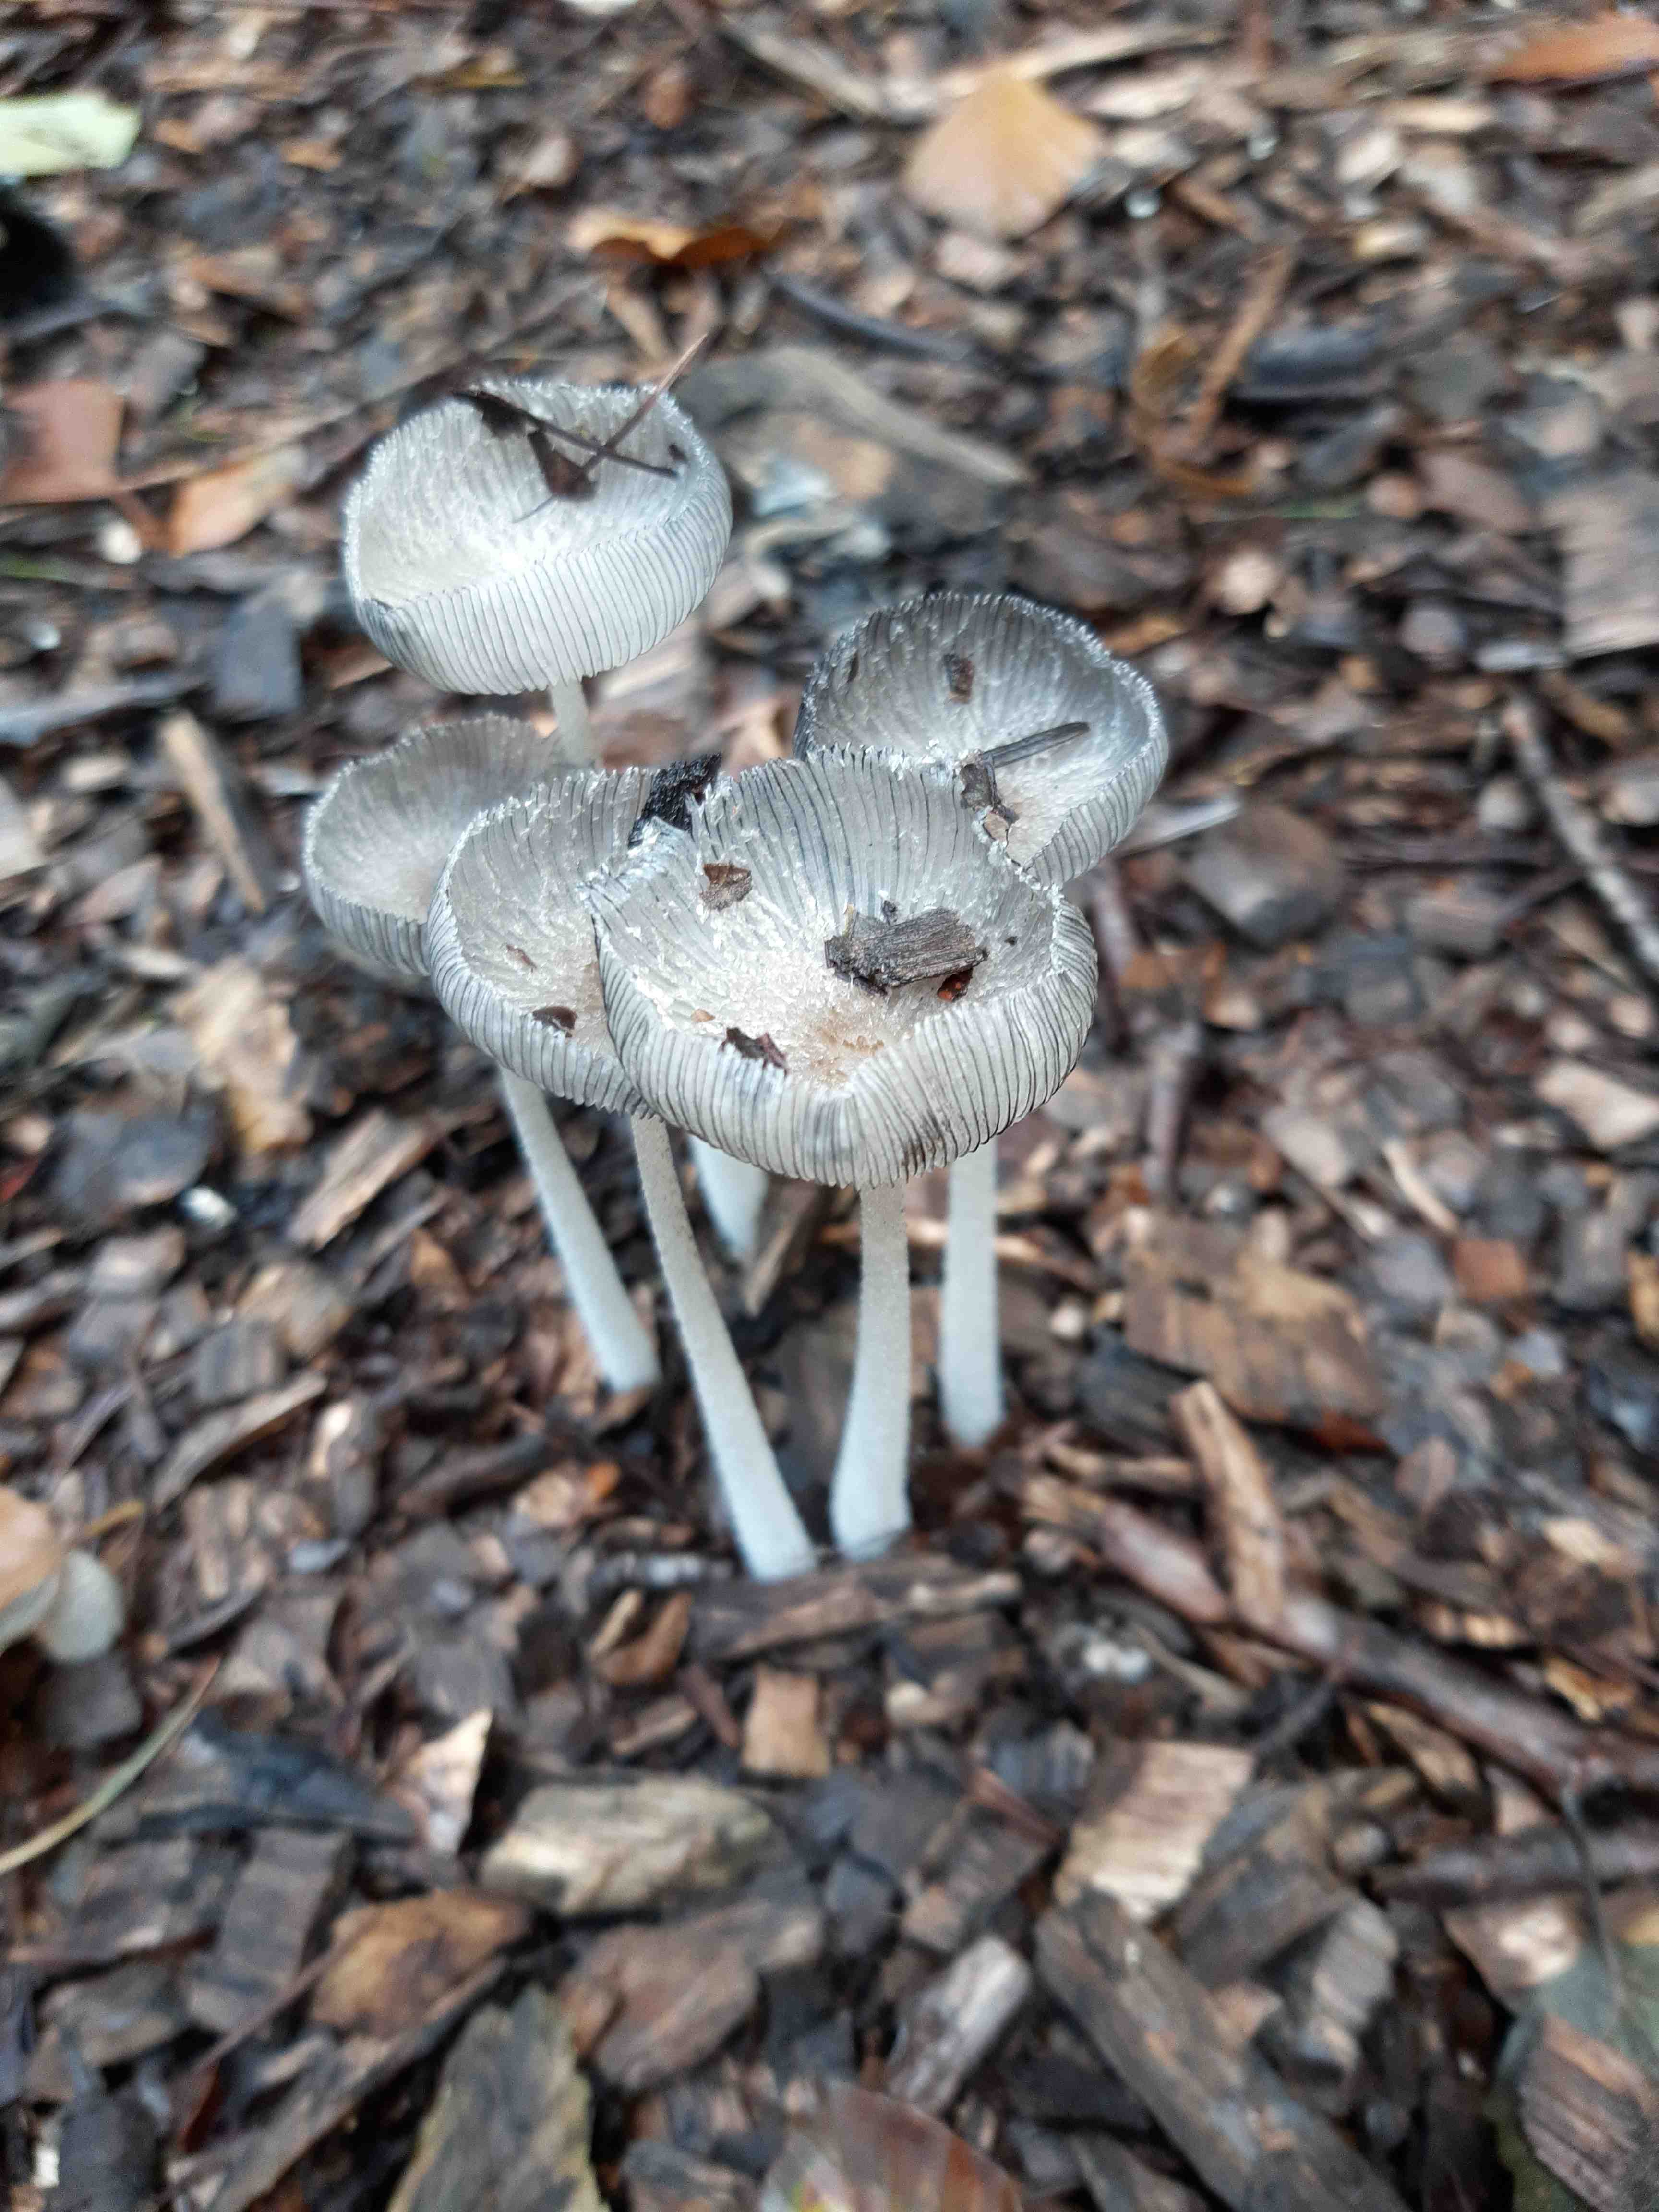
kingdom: Fungi
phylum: Basidiomycota
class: Agaricomycetes
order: Agaricales
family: Psathyrellaceae
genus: Coprinopsis
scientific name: Coprinopsis lagopus
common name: dunstokket blækhat
